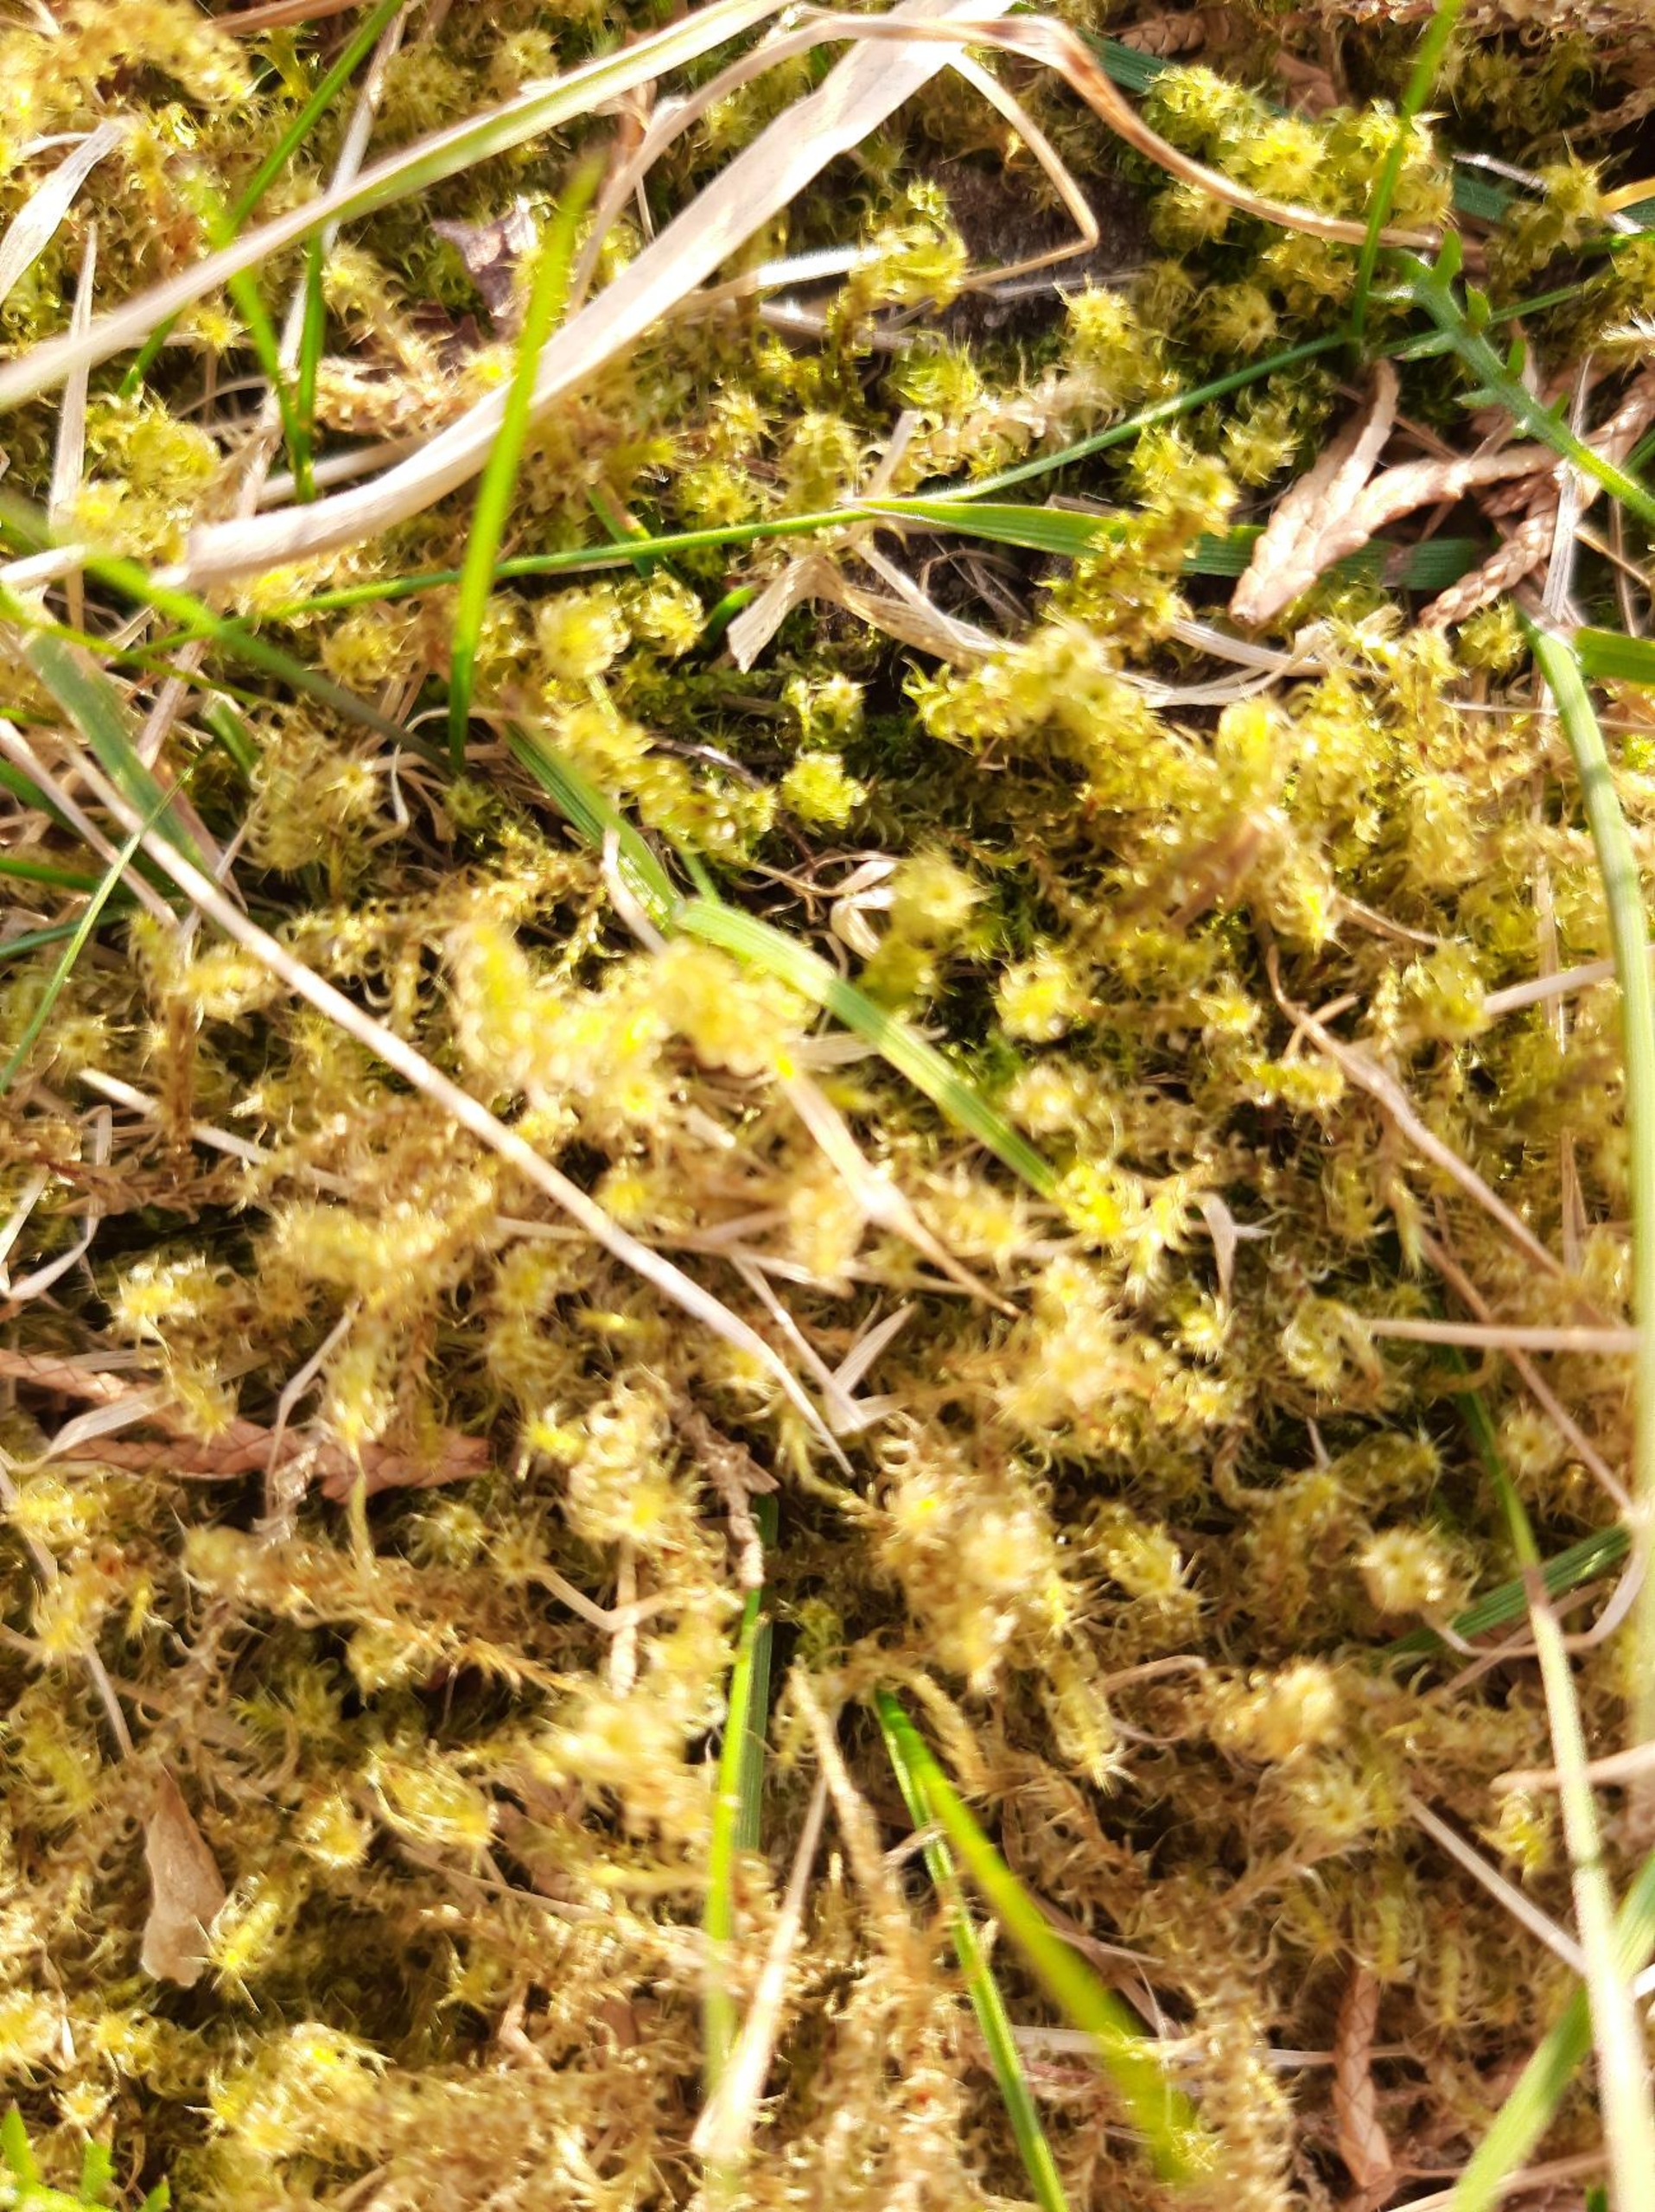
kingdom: Plantae
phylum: Bryophyta
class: Bryopsida
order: Hypnales
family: Hylocomiaceae
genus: Rhytidiadelphus
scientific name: Rhytidiadelphus squarrosus
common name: Plæne-kransemos
